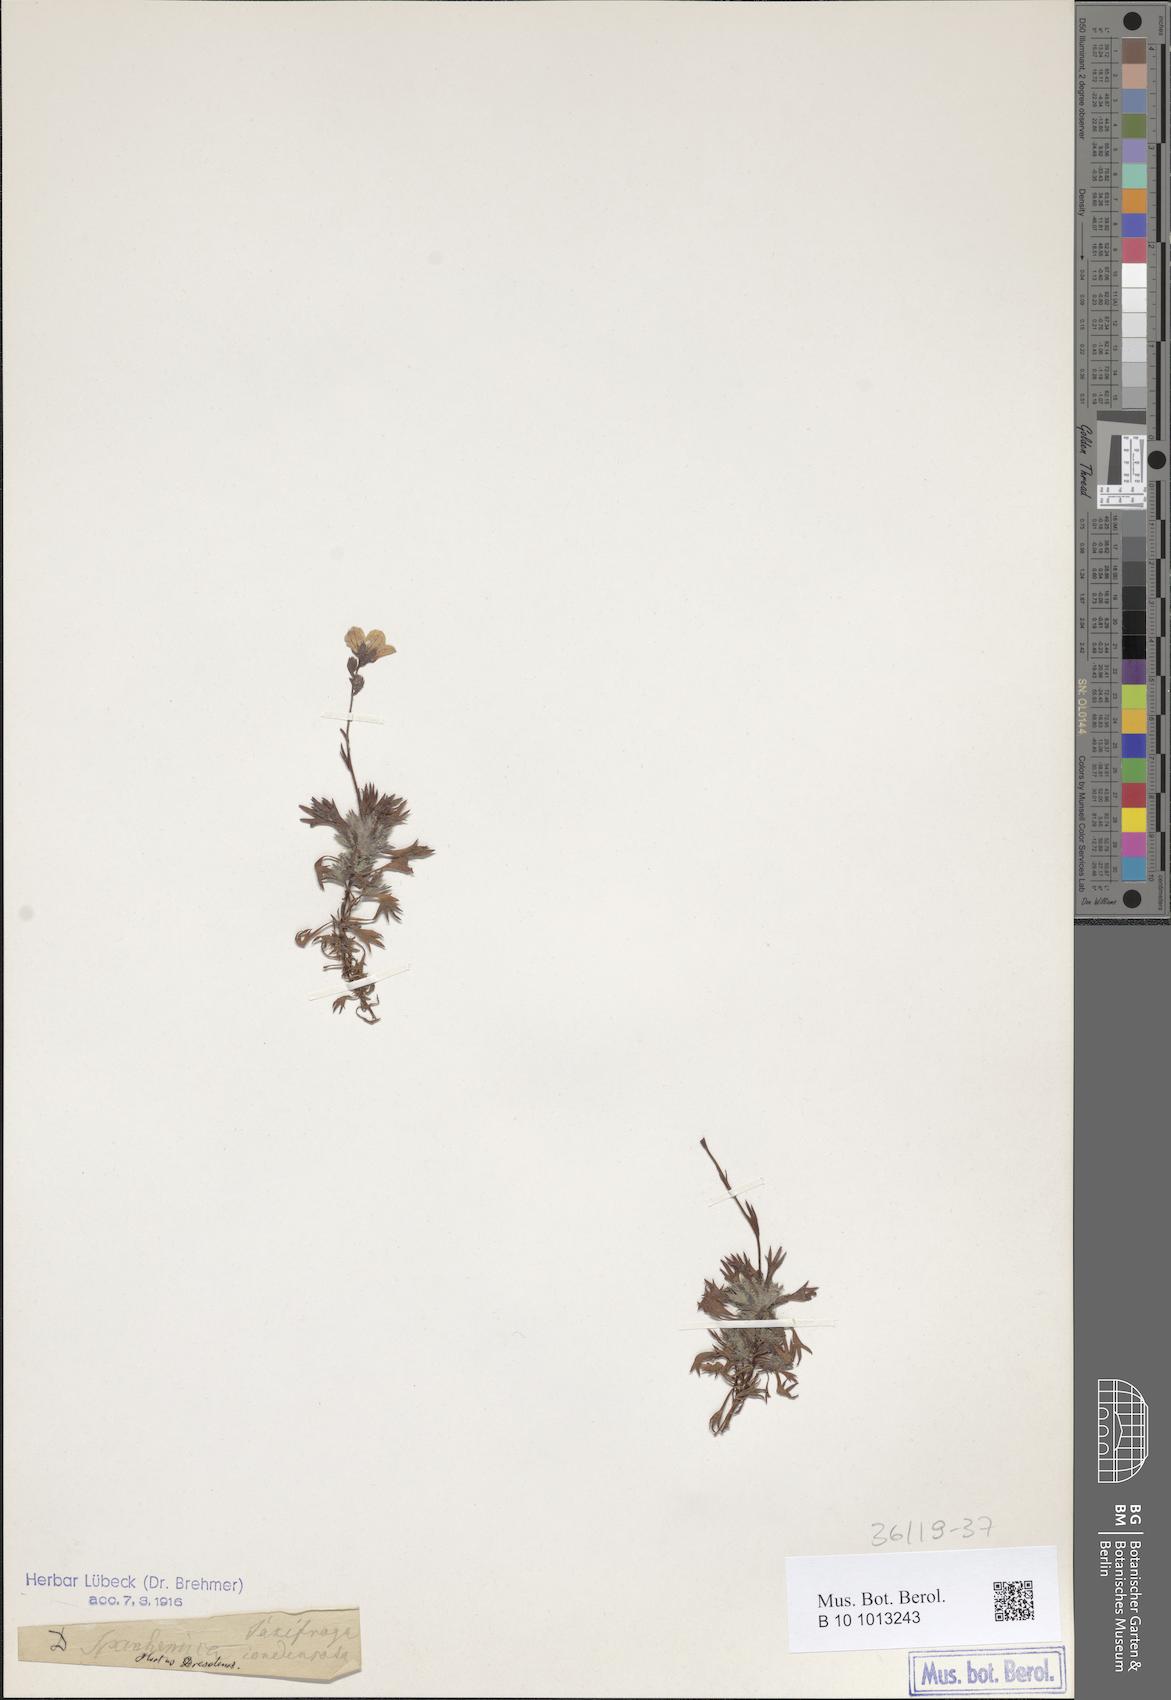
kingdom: Plantae
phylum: Tracheophyta
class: Magnoliopsida
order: Saxifragales
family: Saxifragaceae
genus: Saxifraga
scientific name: Saxifraga rosacea
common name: Irish saxifrage
